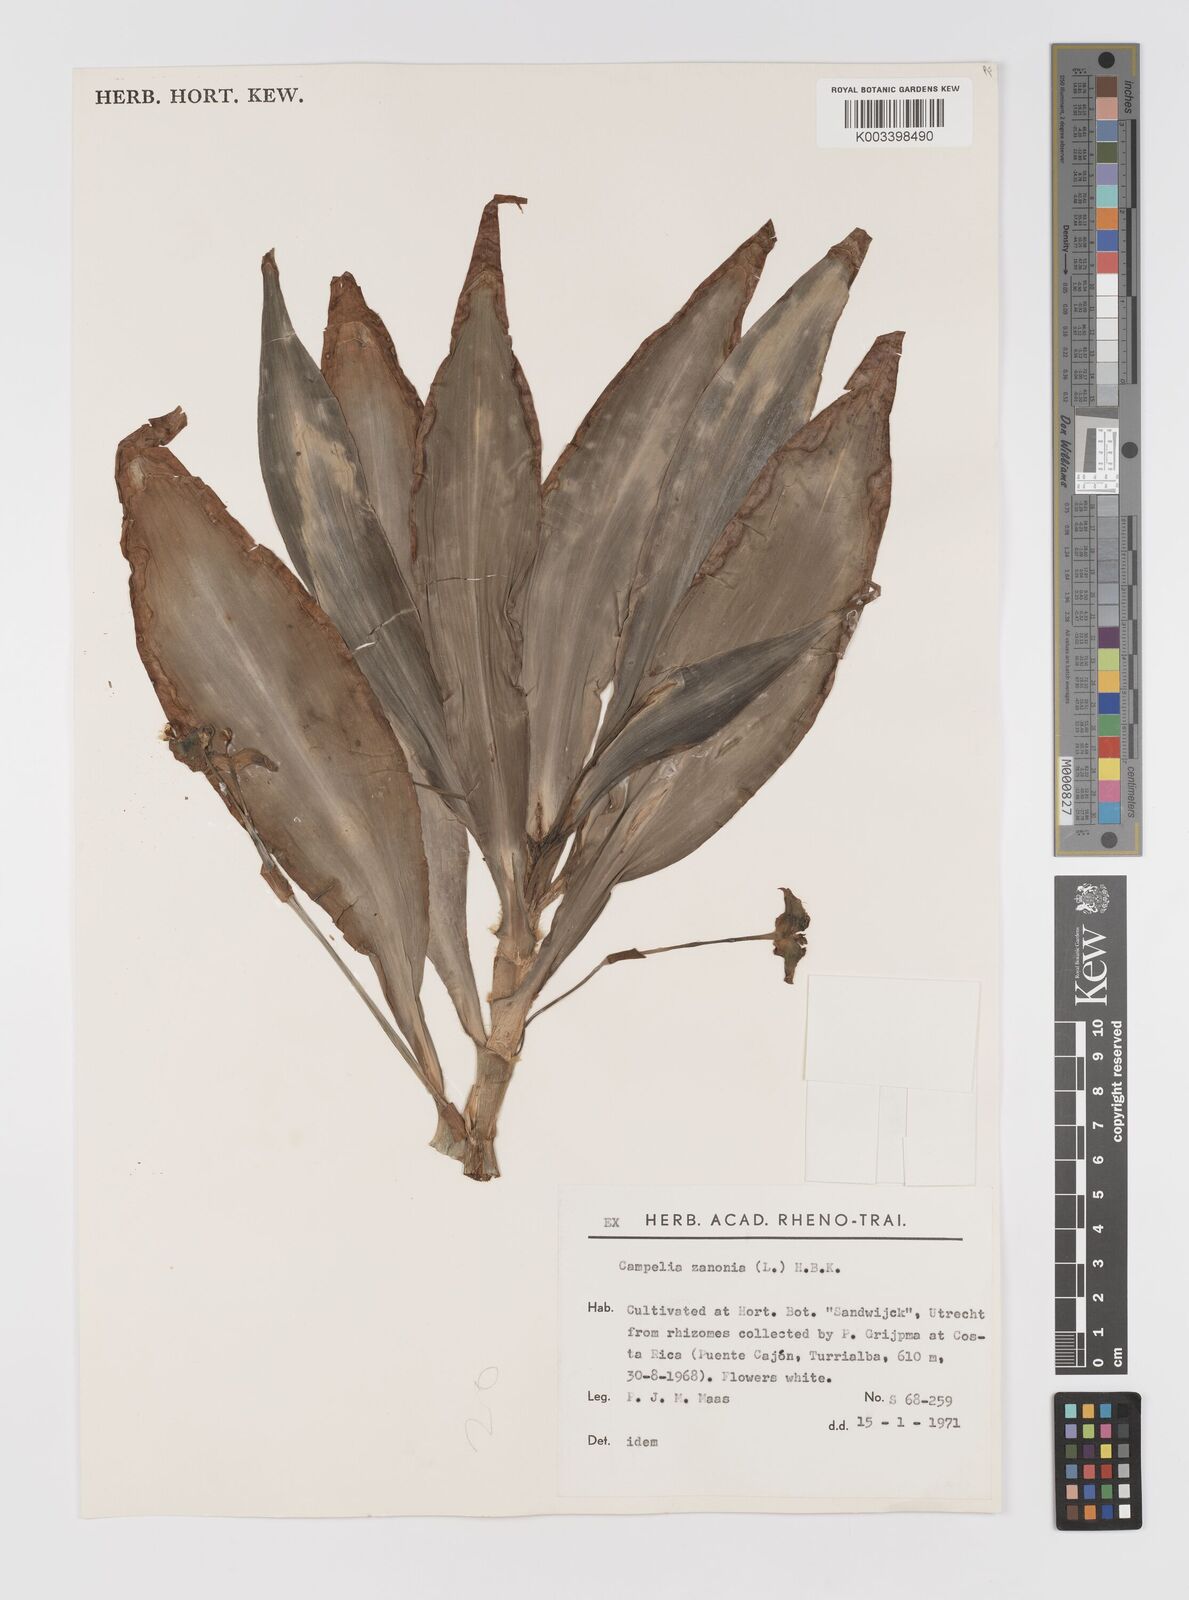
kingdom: Plantae
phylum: Tracheophyta
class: Liliopsida
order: Commelinales
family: Commelinaceae
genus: Tradescantia
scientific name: Tradescantia zanonia
